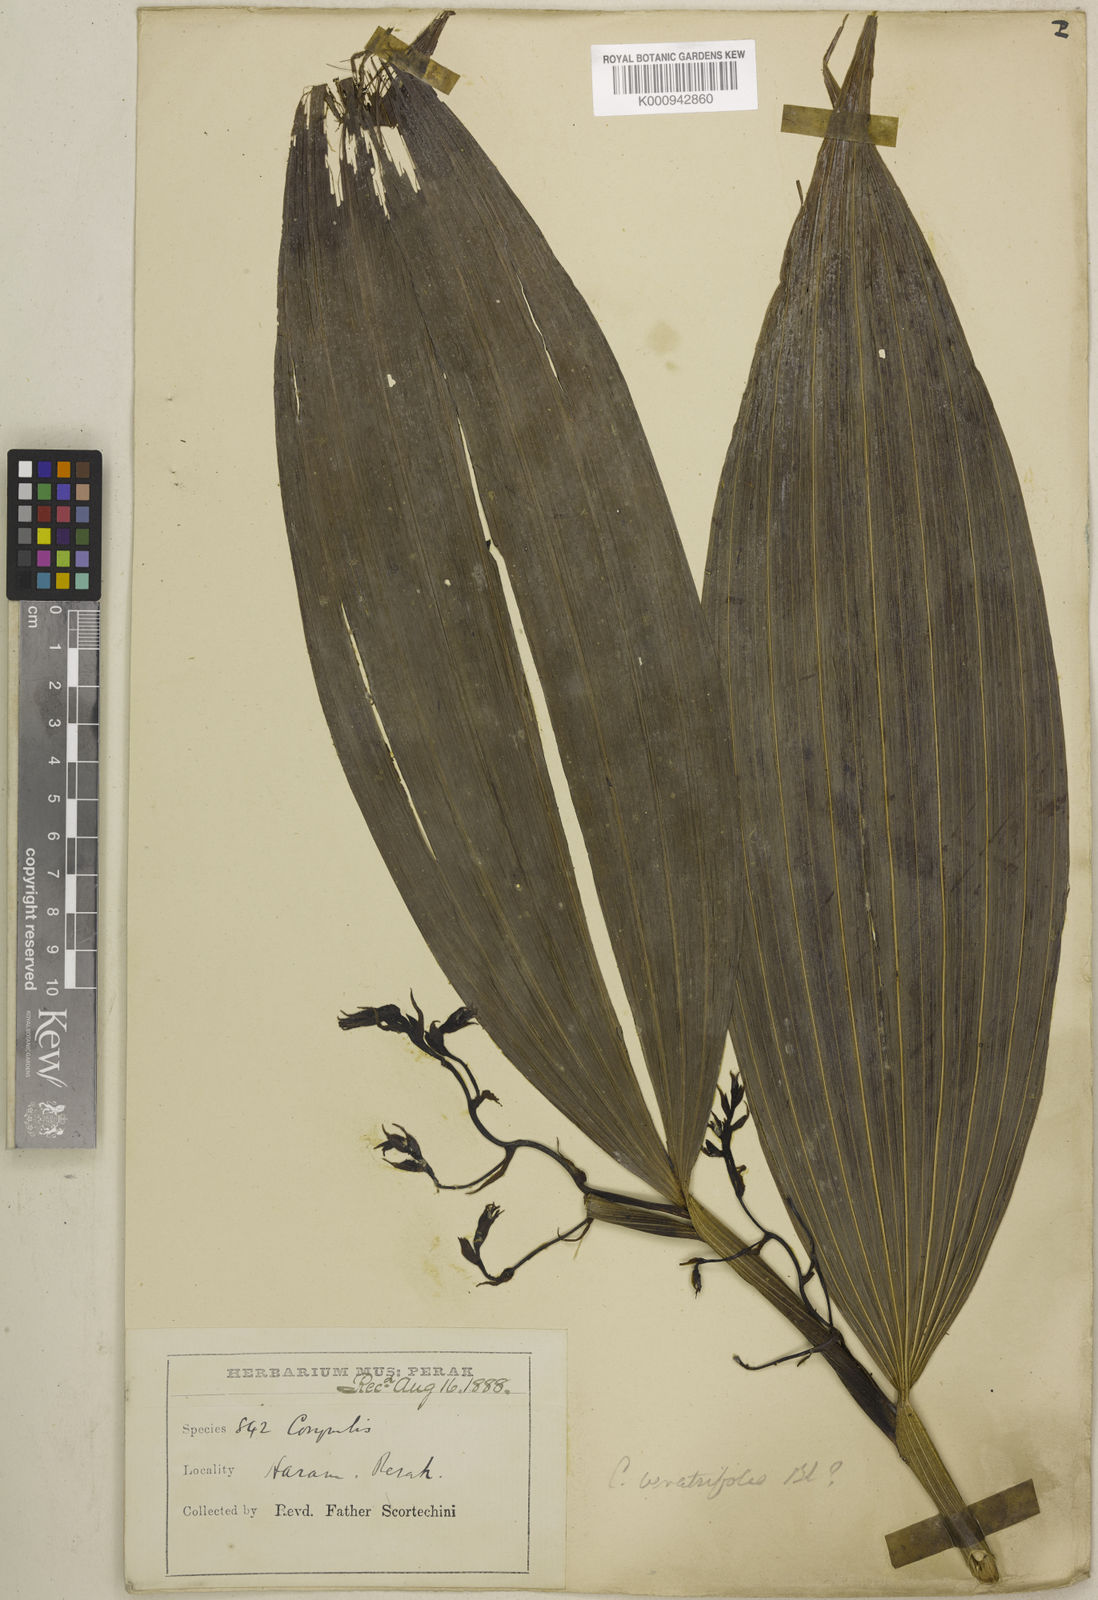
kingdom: Plantae
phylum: Tracheophyta
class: Liliopsida
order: Asparagales
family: Orchidaceae
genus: Corymborkis
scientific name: Corymborkis veratrifolia
